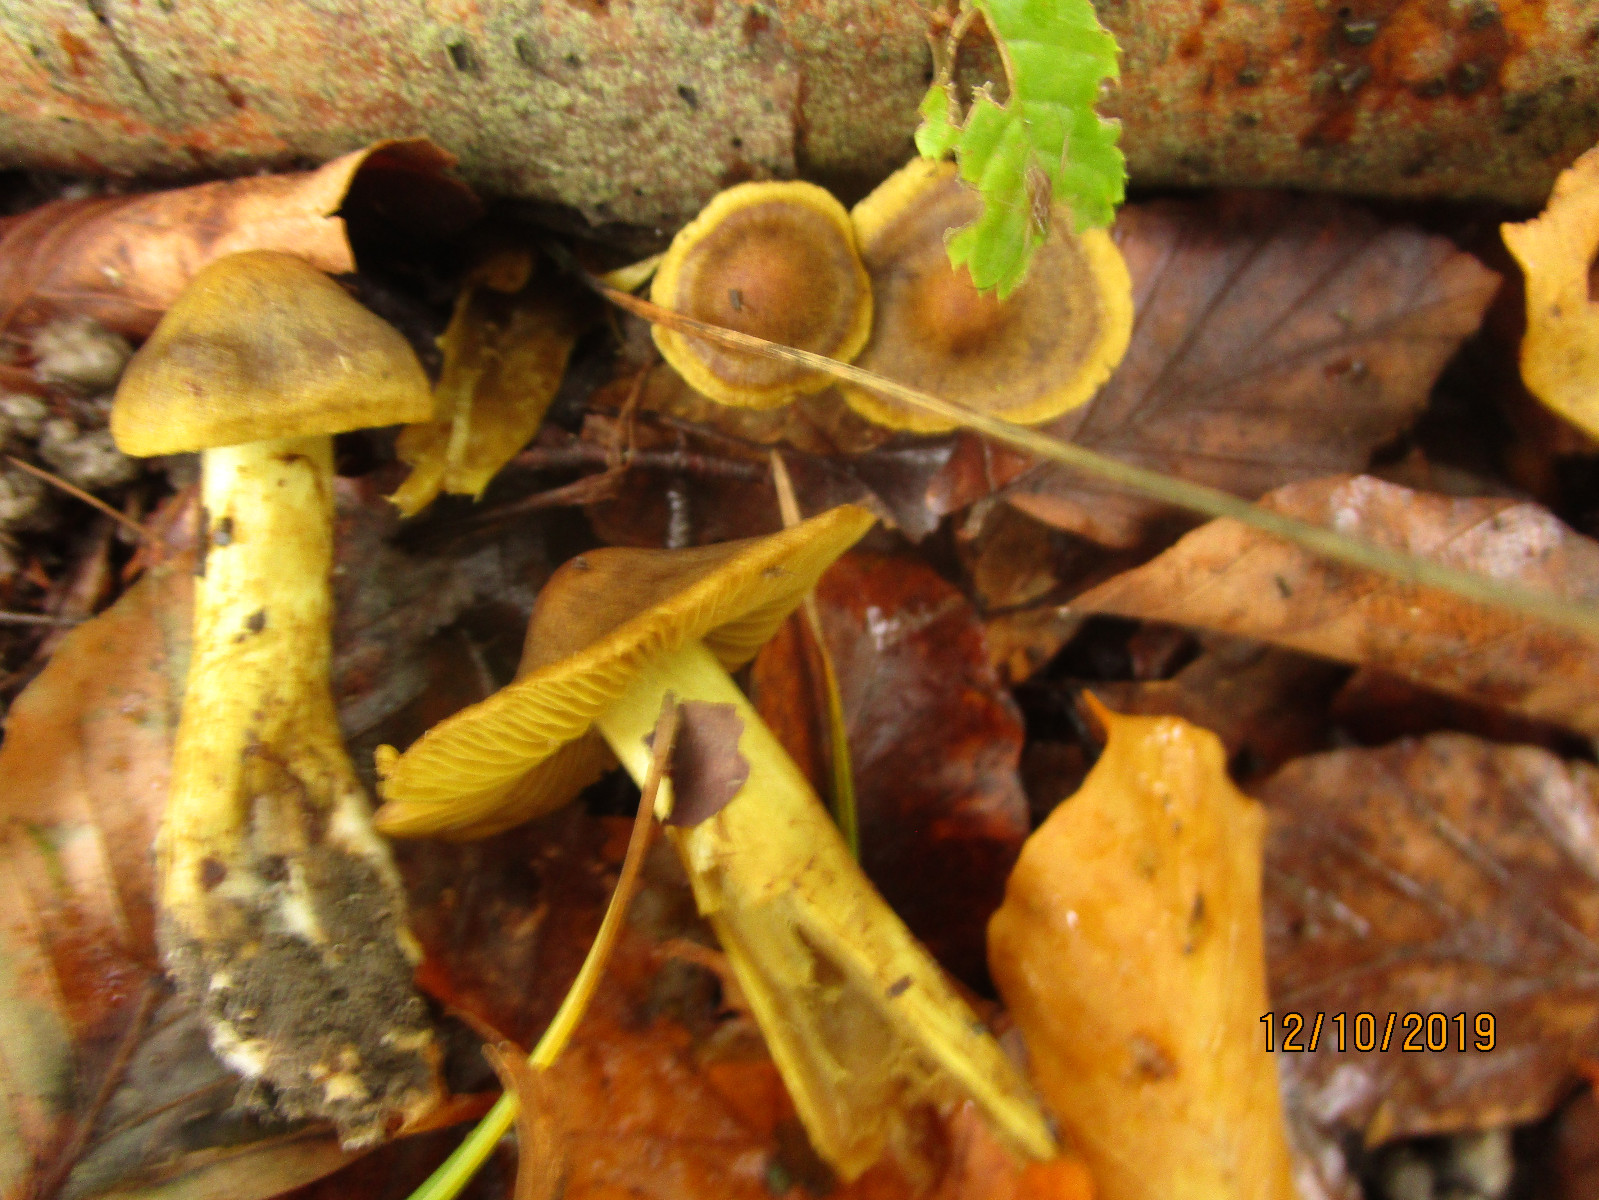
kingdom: Fungi
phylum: Basidiomycota
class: Agaricomycetes
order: Agaricales
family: Cortinariaceae
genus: Cortinarius
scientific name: Cortinarius olivaceofuscus
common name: olivenbrun slørhat
